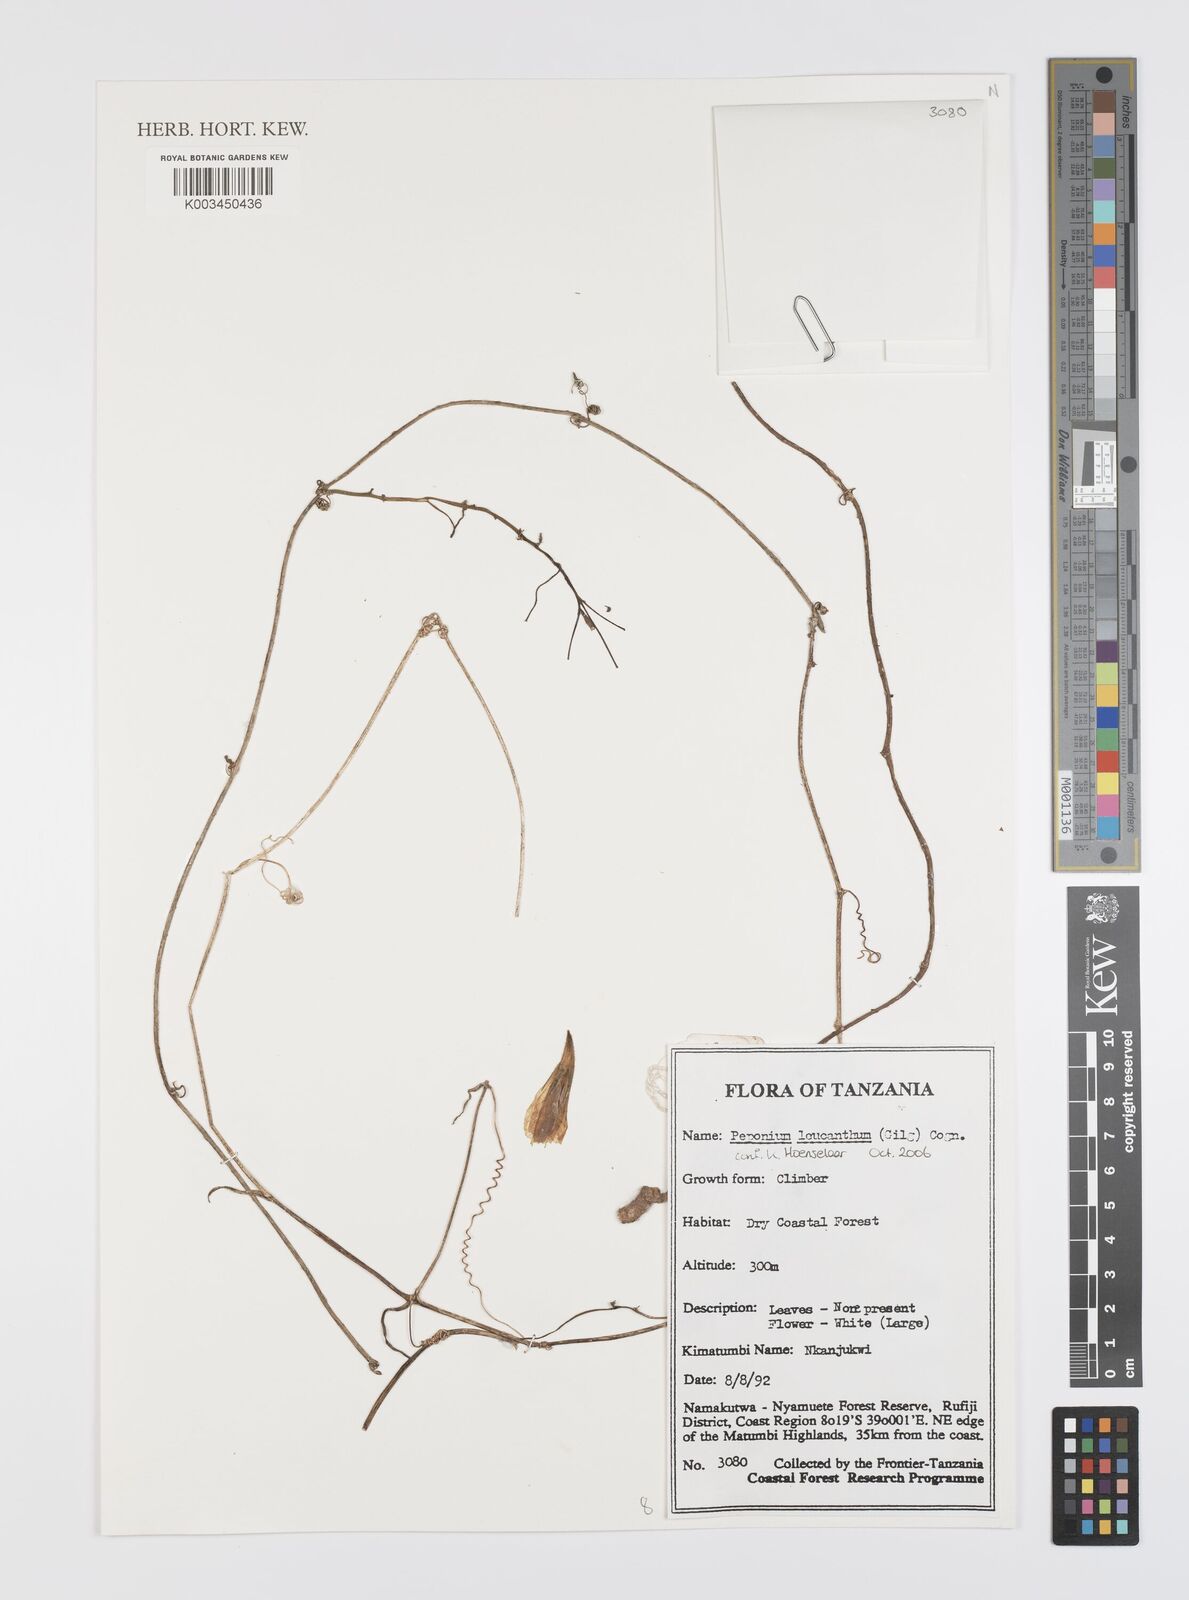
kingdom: Plantae
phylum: Tracheophyta
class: Magnoliopsida
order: Cucurbitales
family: Cucurbitaceae
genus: Peponium
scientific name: Peponium leucanthum
